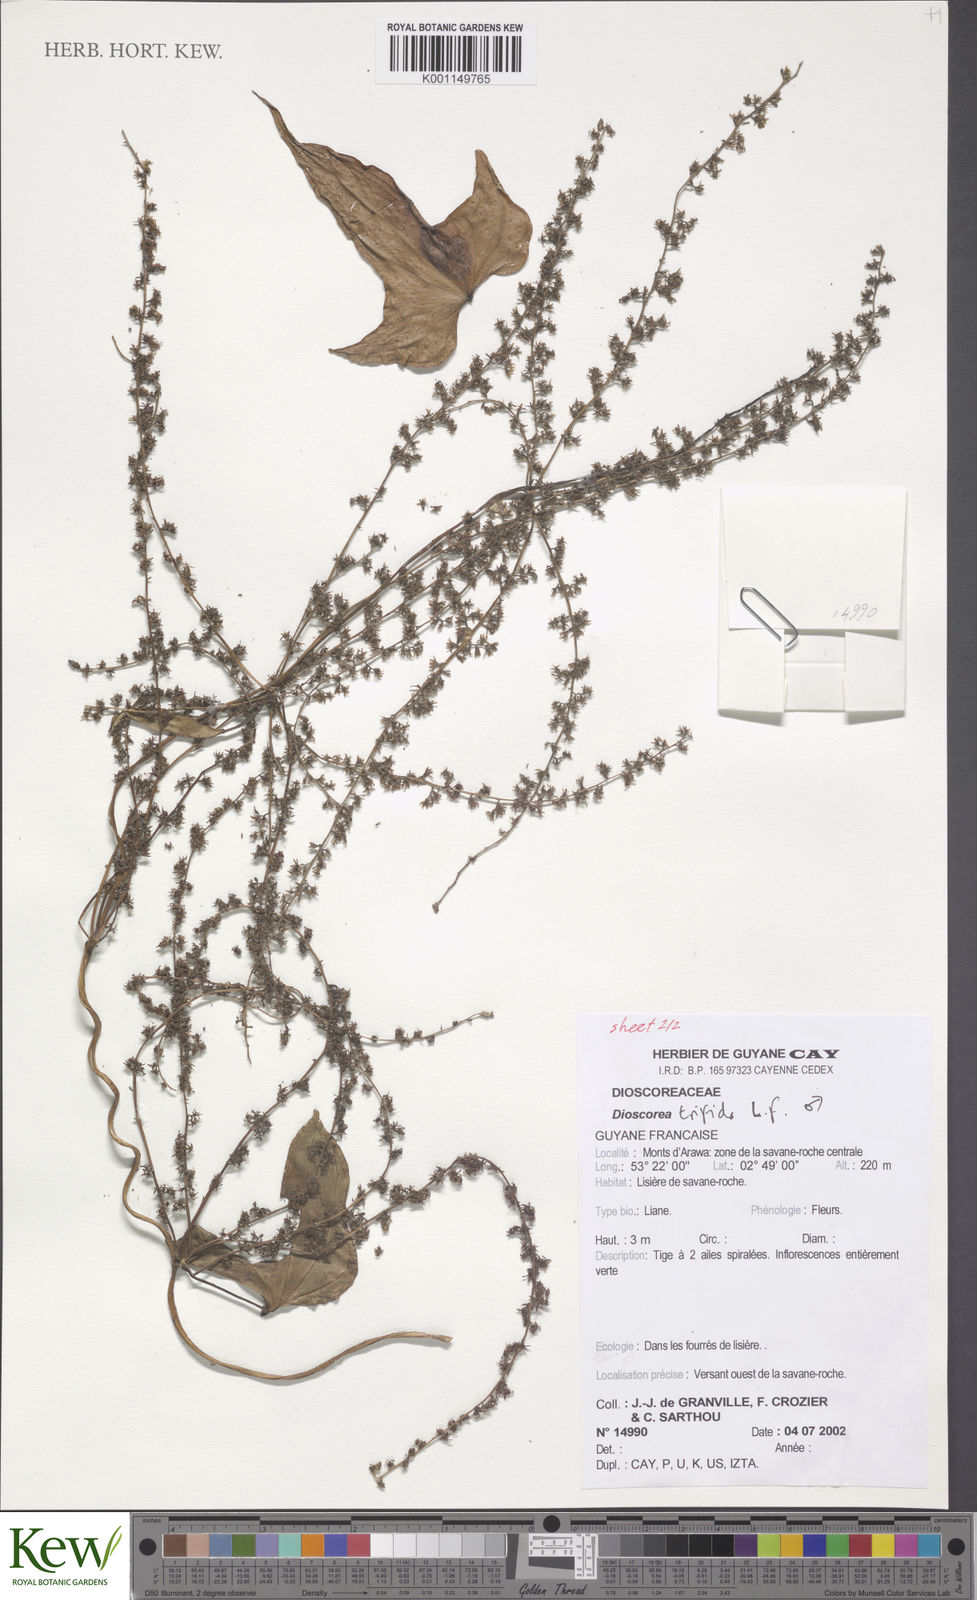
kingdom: Plantae
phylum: Tracheophyta
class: Liliopsida
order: Dioscoreales
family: Dioscoreaceae
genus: Dioscorea
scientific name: Dioscorea trifida
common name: Cush-cush
